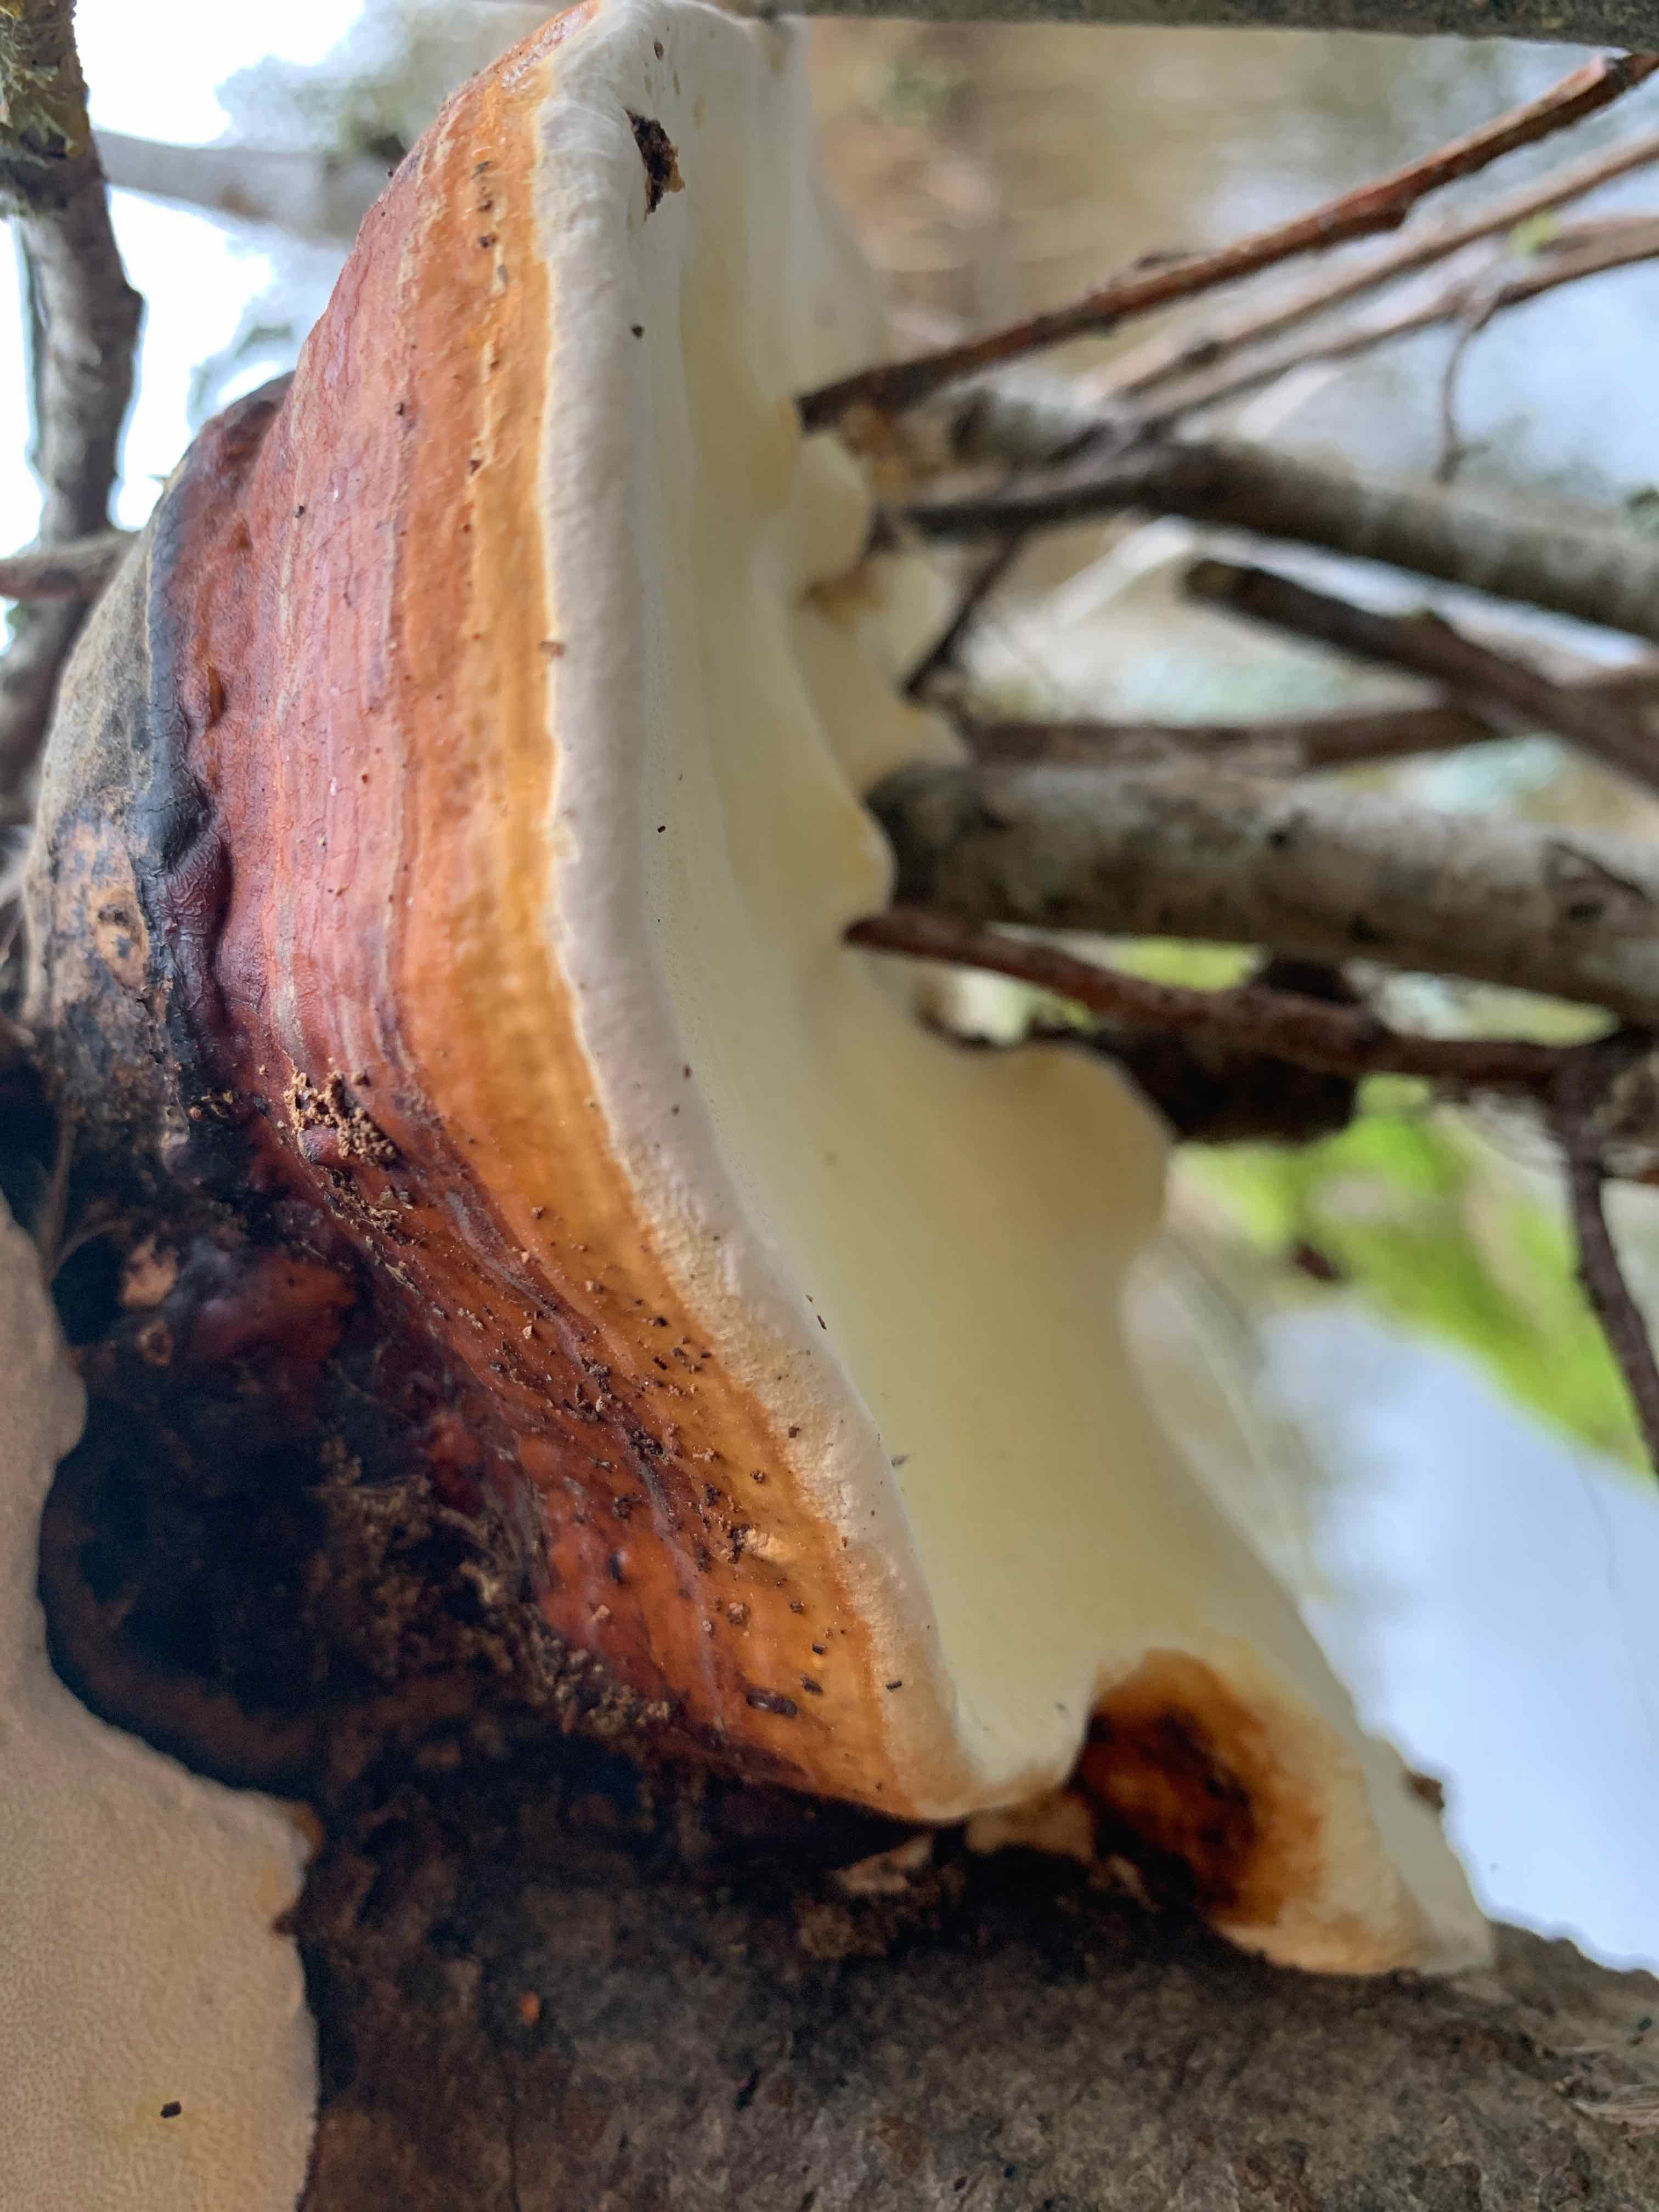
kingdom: Fungi
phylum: Basidiomycota
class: Agaricomycetes
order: Polyporales
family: Fomitopsidaceae
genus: Fomitopsis
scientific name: Fomitopsis pinicola
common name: randbæltet hovporesvamp
